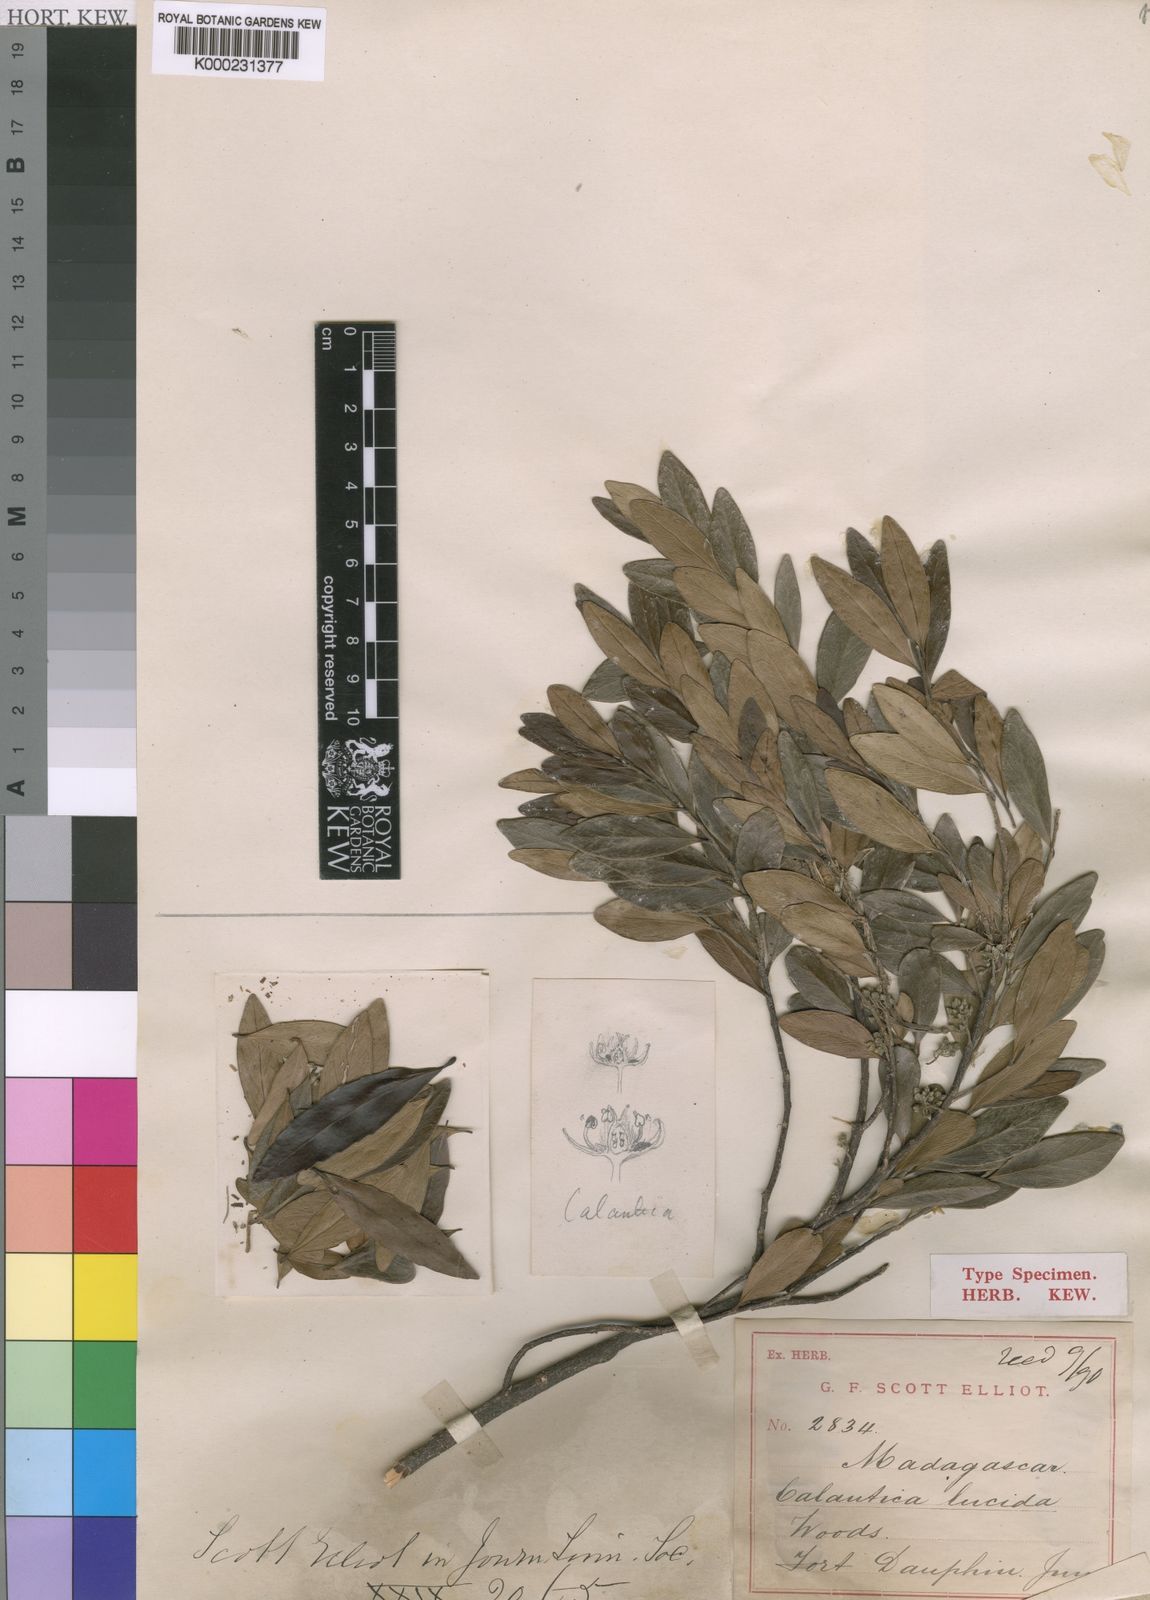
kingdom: Plantae
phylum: Tracheophyta
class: Magnoliopsida
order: Malpighiales
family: Salicaceae
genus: Calantica
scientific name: Calantica lucida
